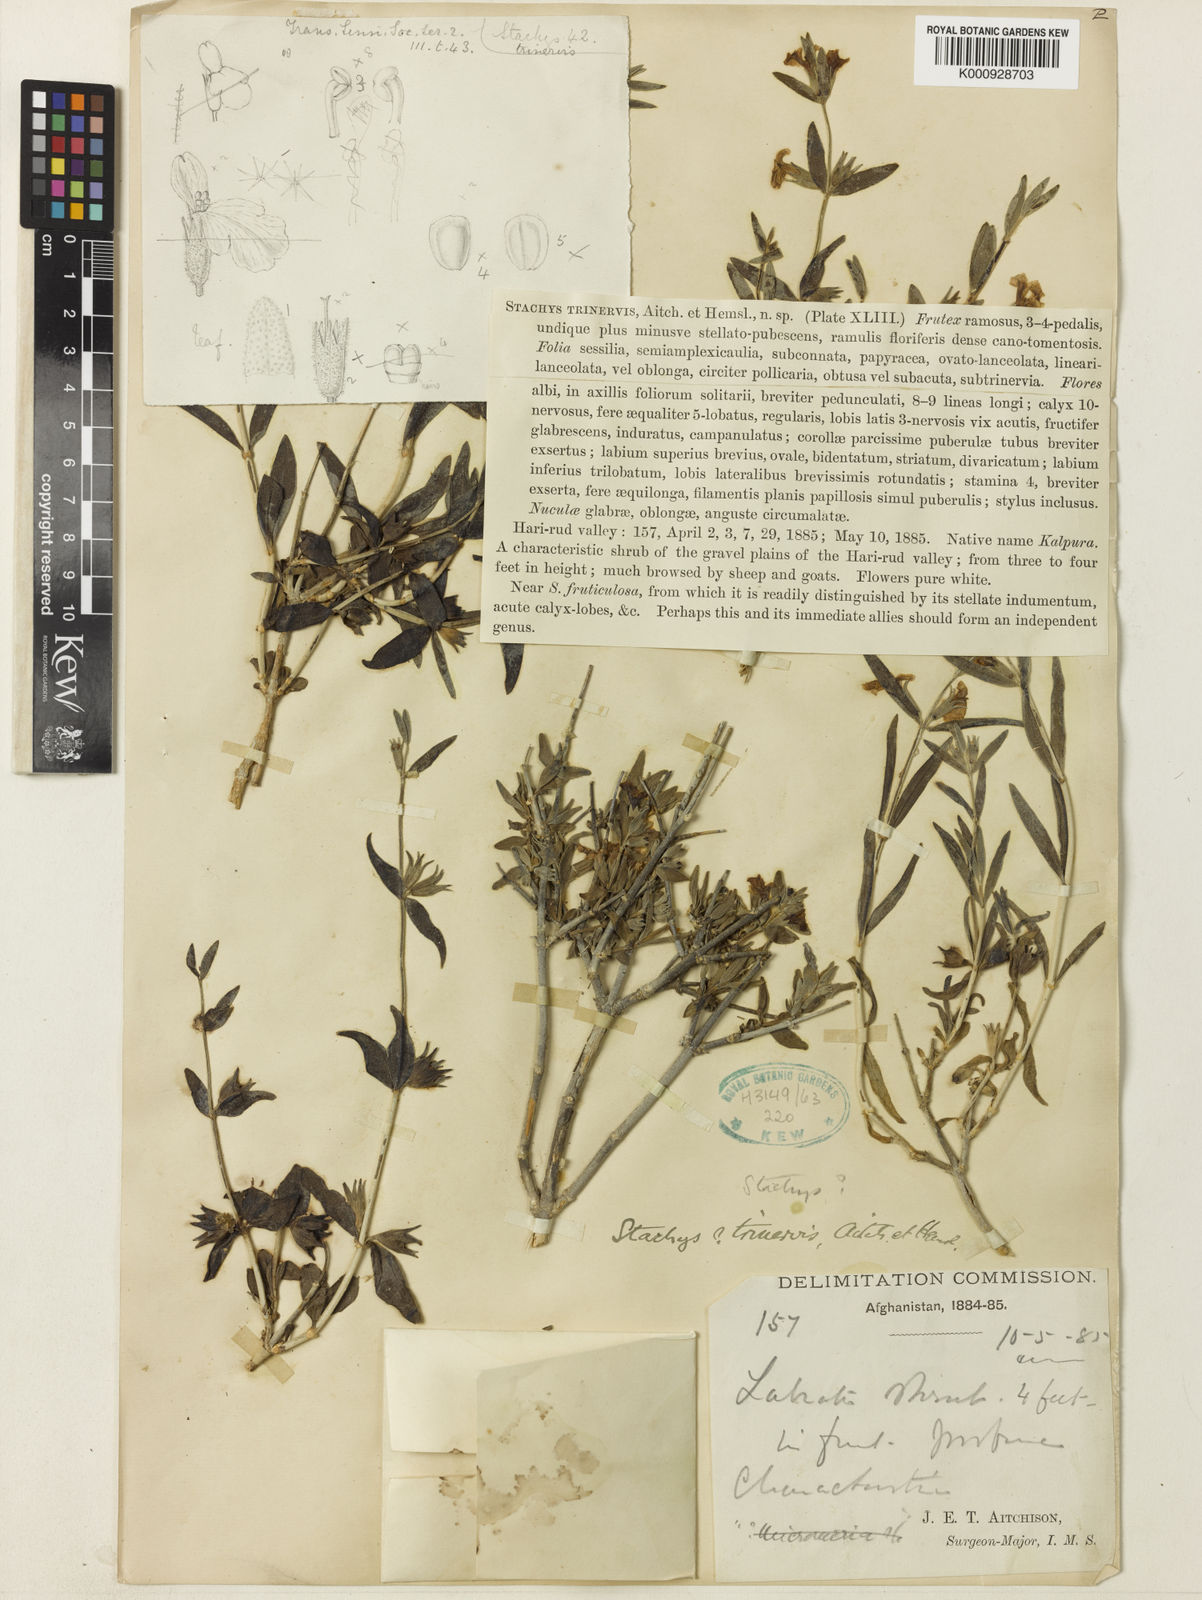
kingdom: Plantae
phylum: Tracheophyta
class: Magnoliopsida
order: Lamiales
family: Lamiaceae
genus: Stachys
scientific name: Stachys fruticulosa
